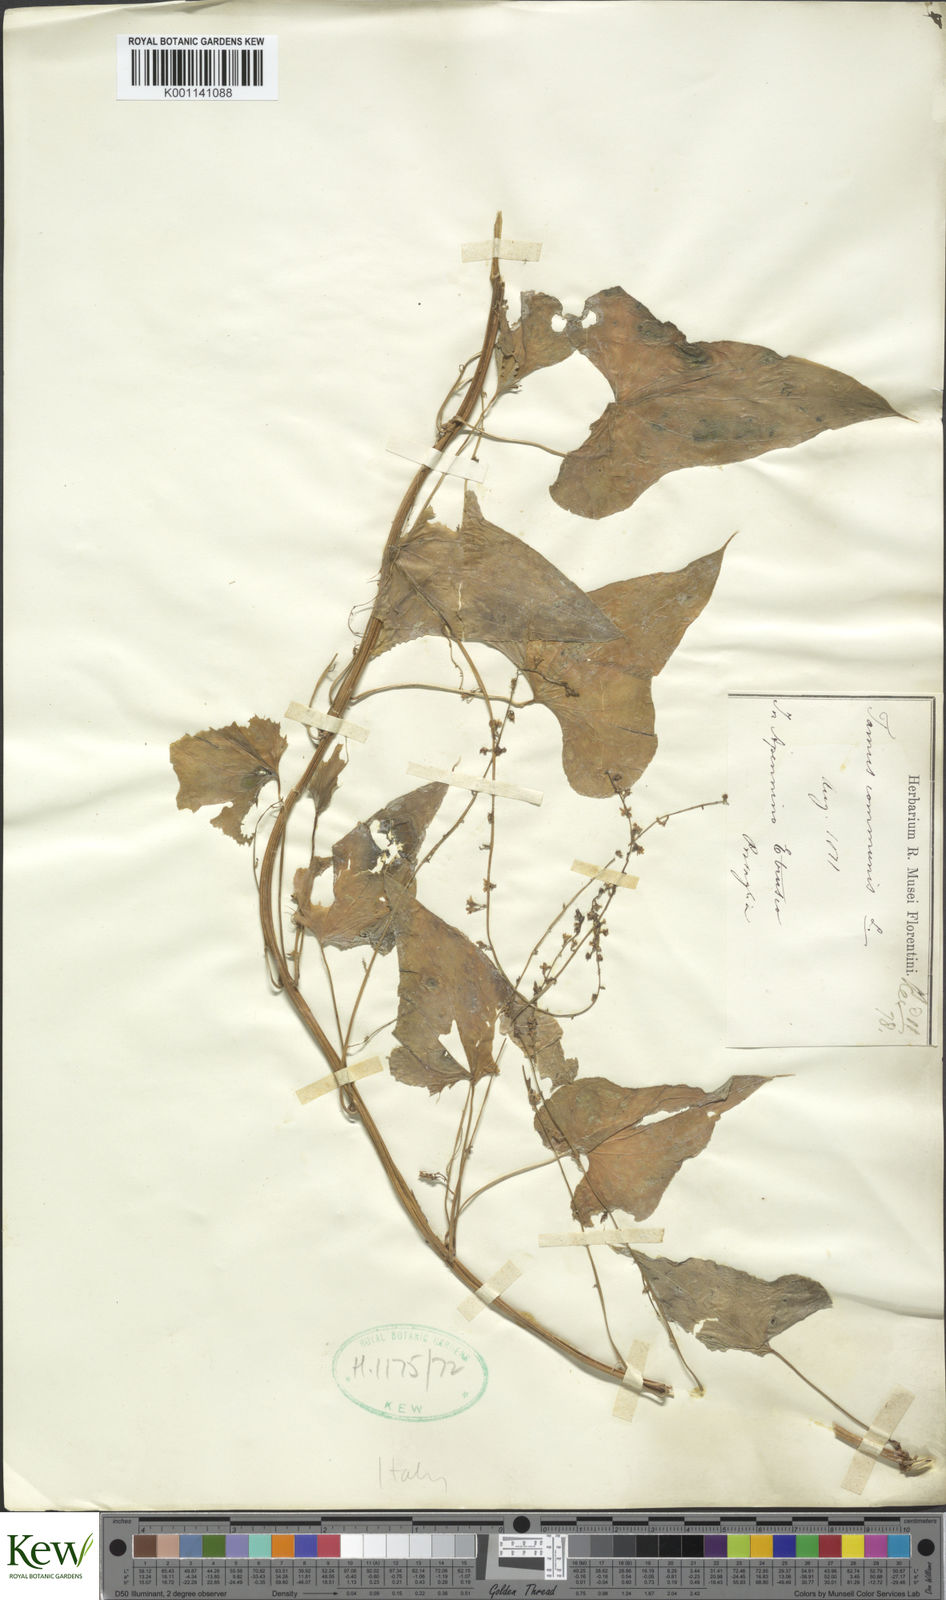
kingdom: Plantae
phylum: Tracheophyta
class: Liliopsida
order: Dioscoreales
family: Dioscoreaceae
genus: Dioscorea
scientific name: Dioscorea communis
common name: Black-bindweed
